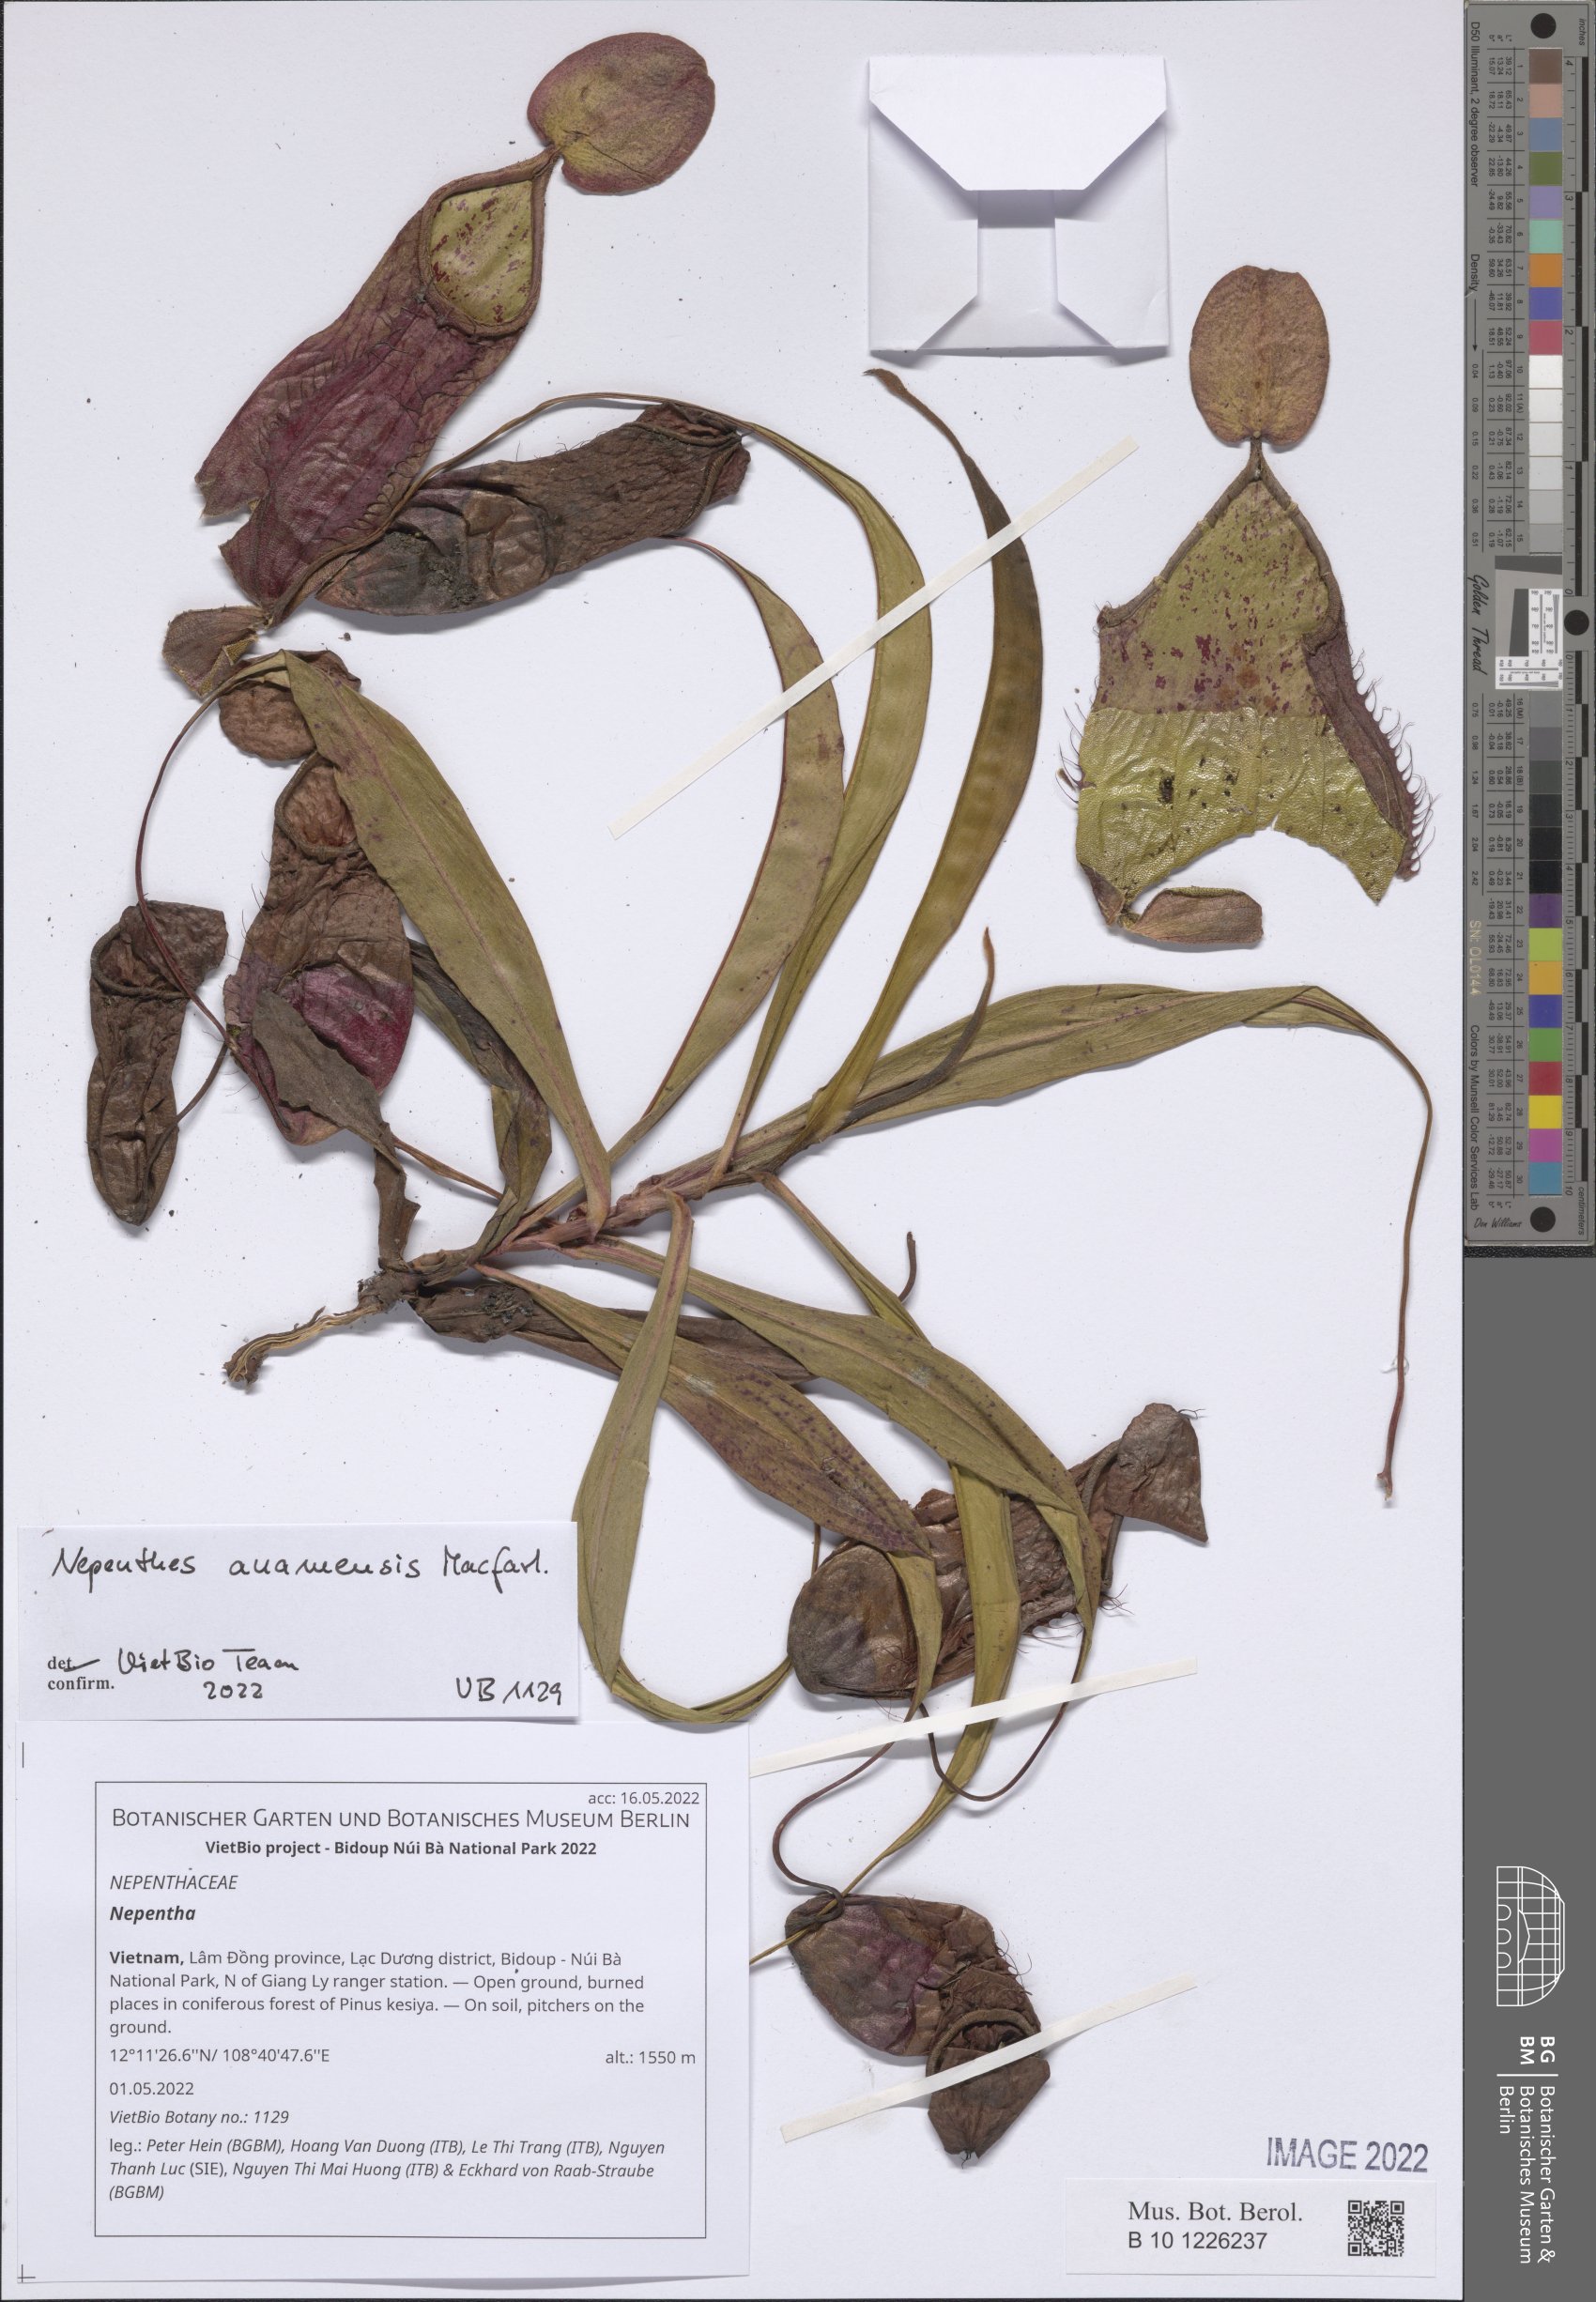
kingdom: Plantae
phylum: Tracheophyta
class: Magnoliopsida
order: Caryophyllales
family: Nepenthaceae
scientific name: Nepenthaceae
